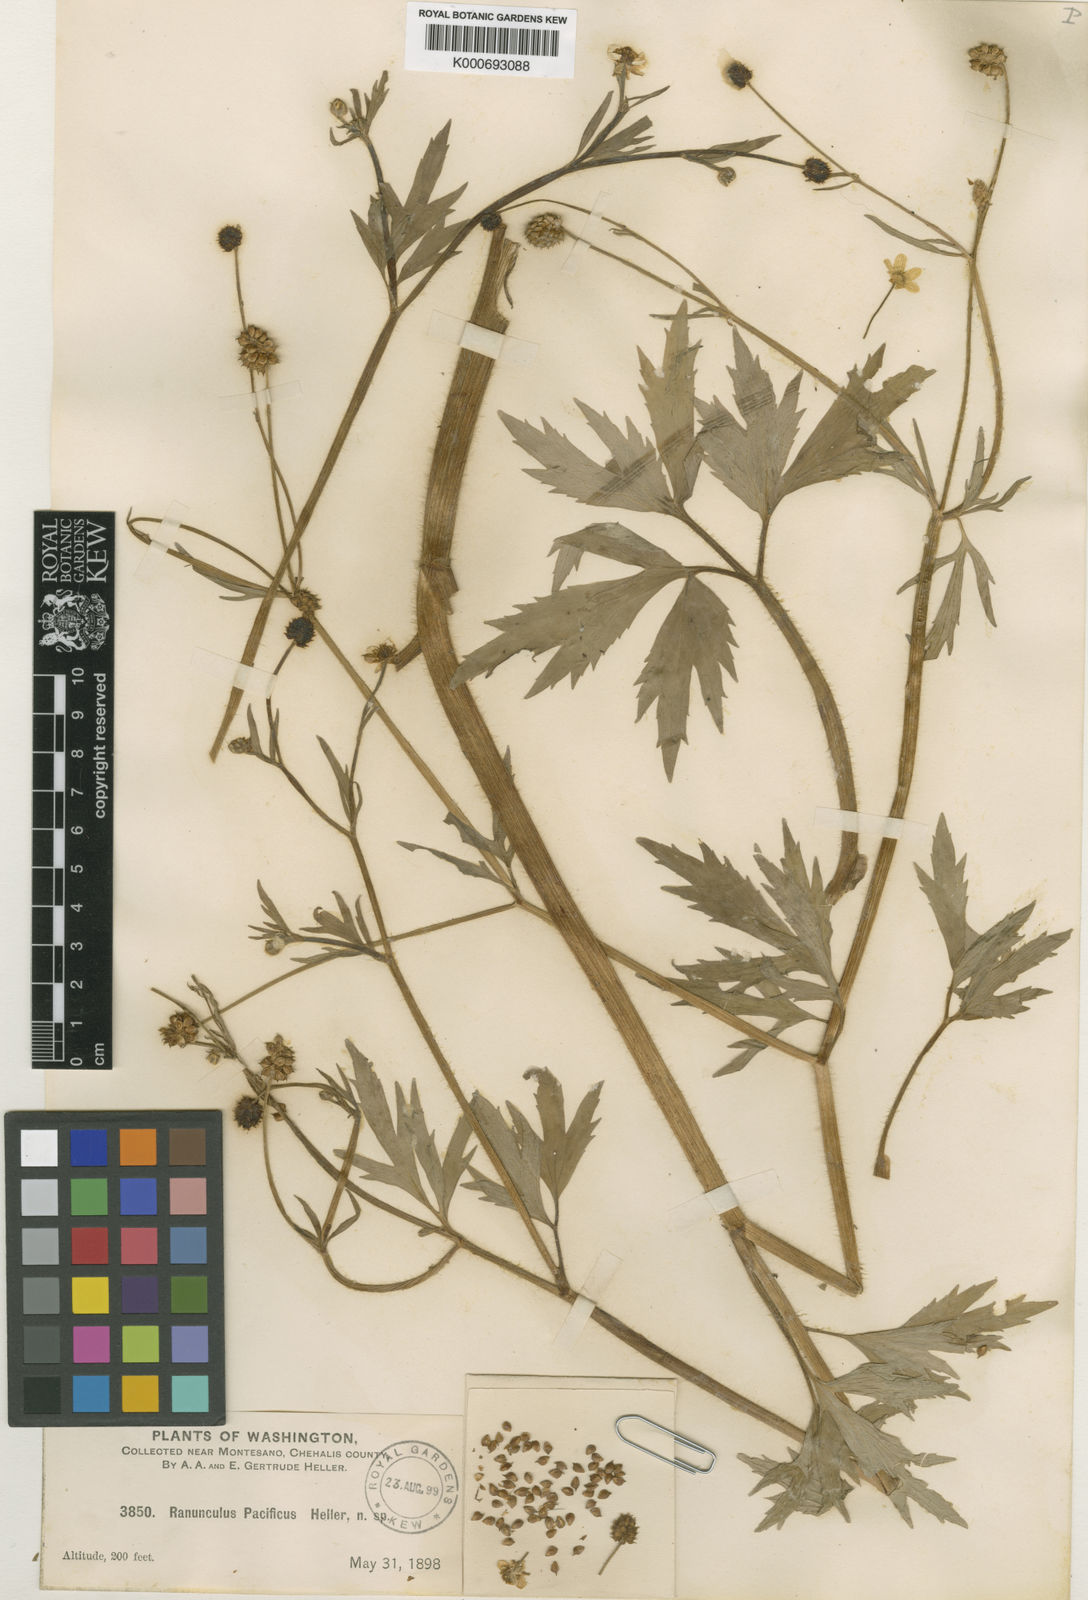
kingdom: Plantae
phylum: Tracheophyta
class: Magnoliopsida
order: Ranunculales
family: Ranunculaceae
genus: Ranunculus
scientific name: Ranunculus
